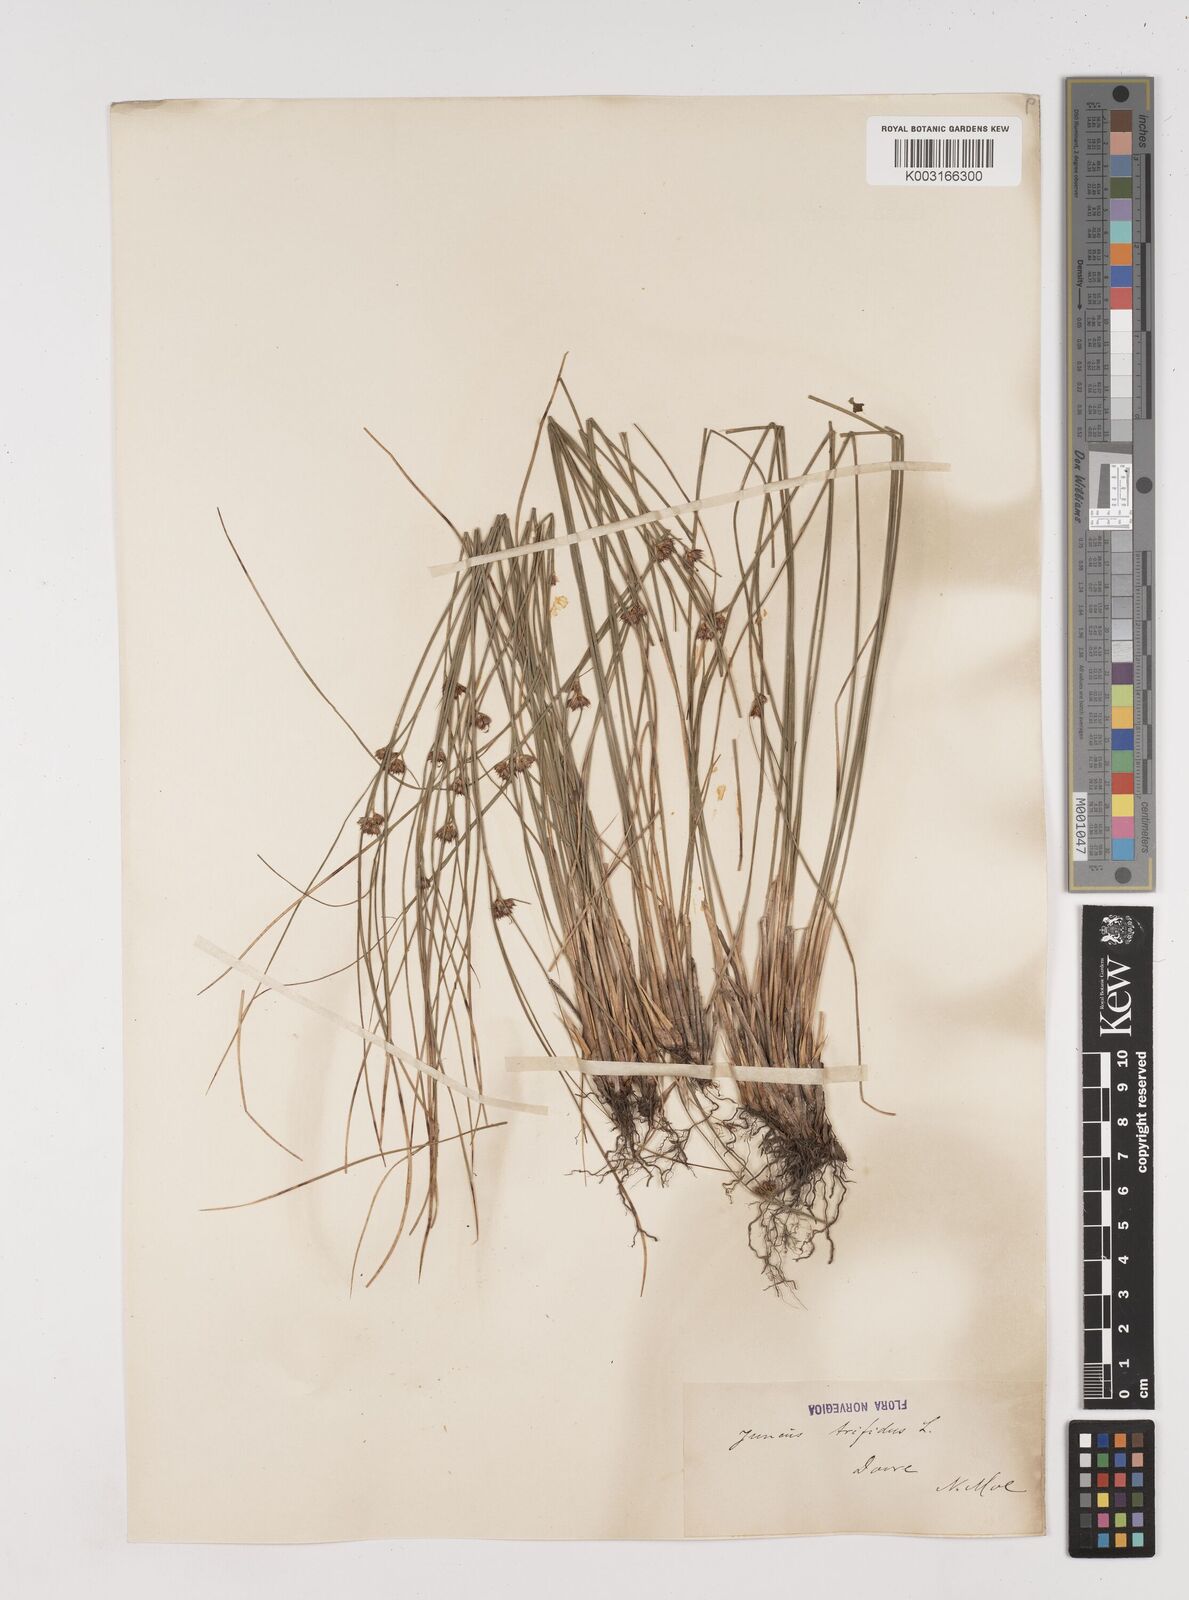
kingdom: Plantae
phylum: Tracheophyta
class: Liliopsida
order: Poales
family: Juncaceae
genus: Oreojuncus
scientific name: Oreojuncus trifidus
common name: Highland rush
